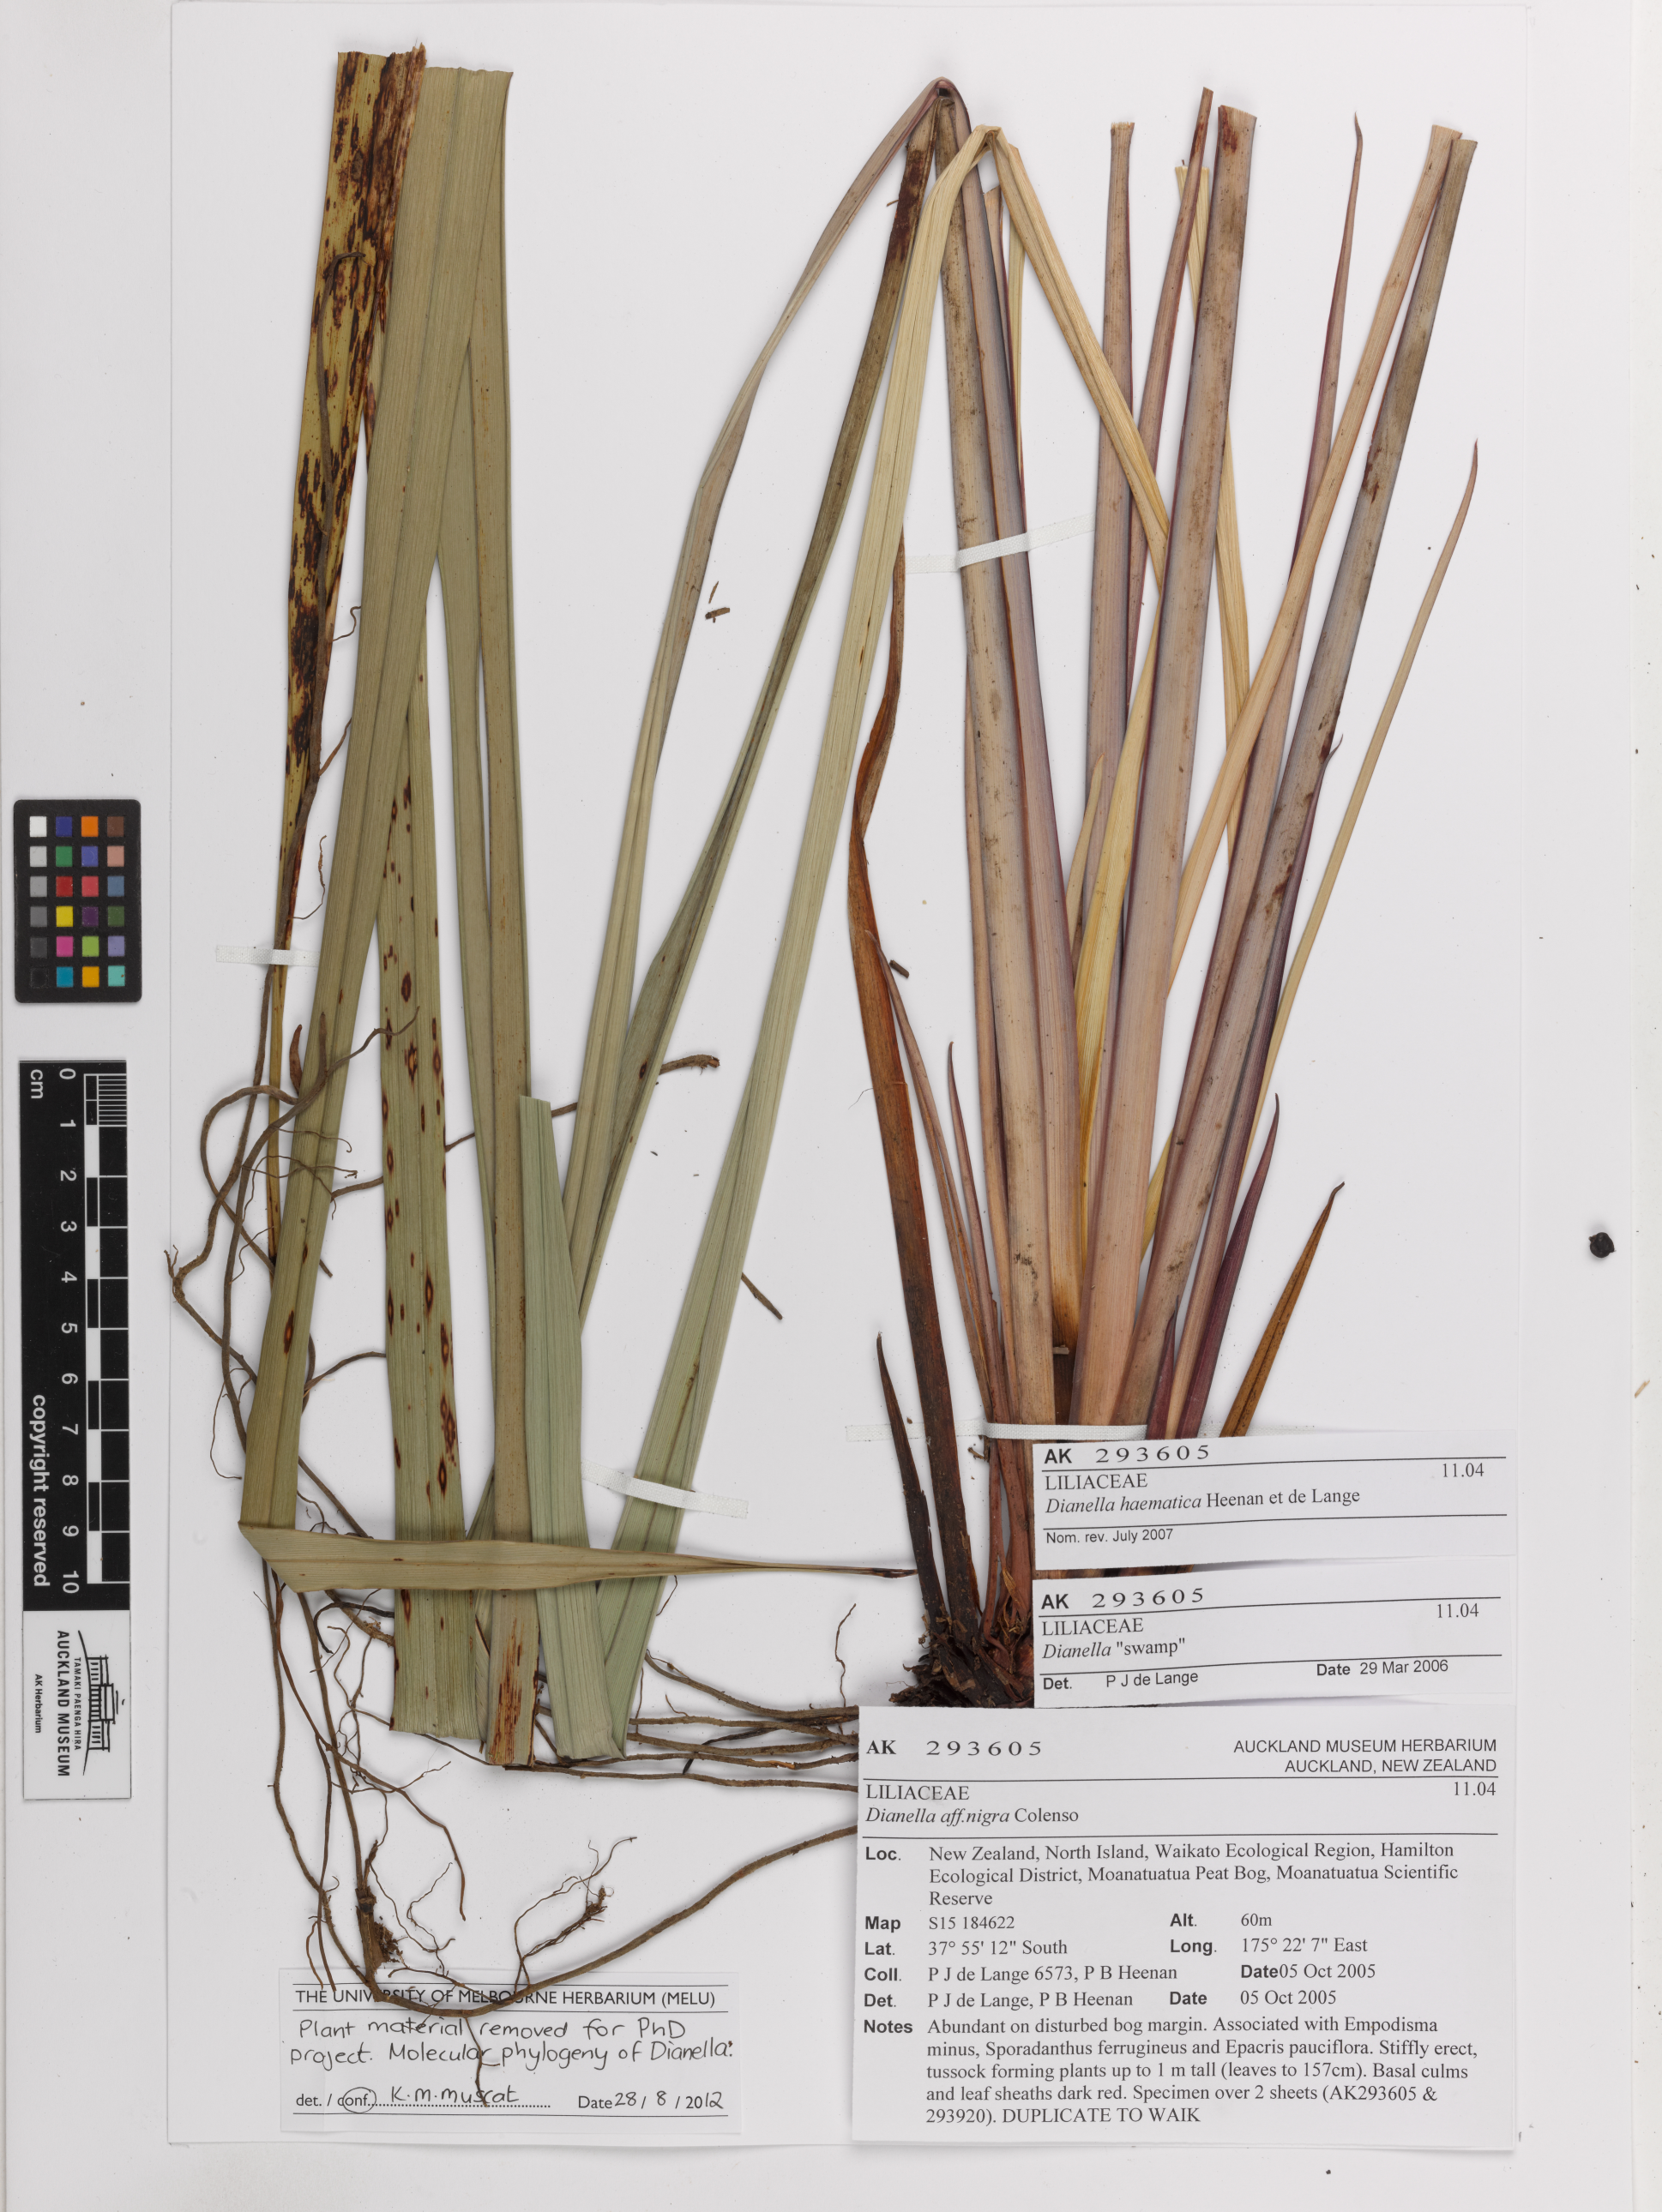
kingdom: Plantae
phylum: Tracheophyta
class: Liliopsida
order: Asparagales
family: Asphodelaceae
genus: Dianella
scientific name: Dianella haematica
